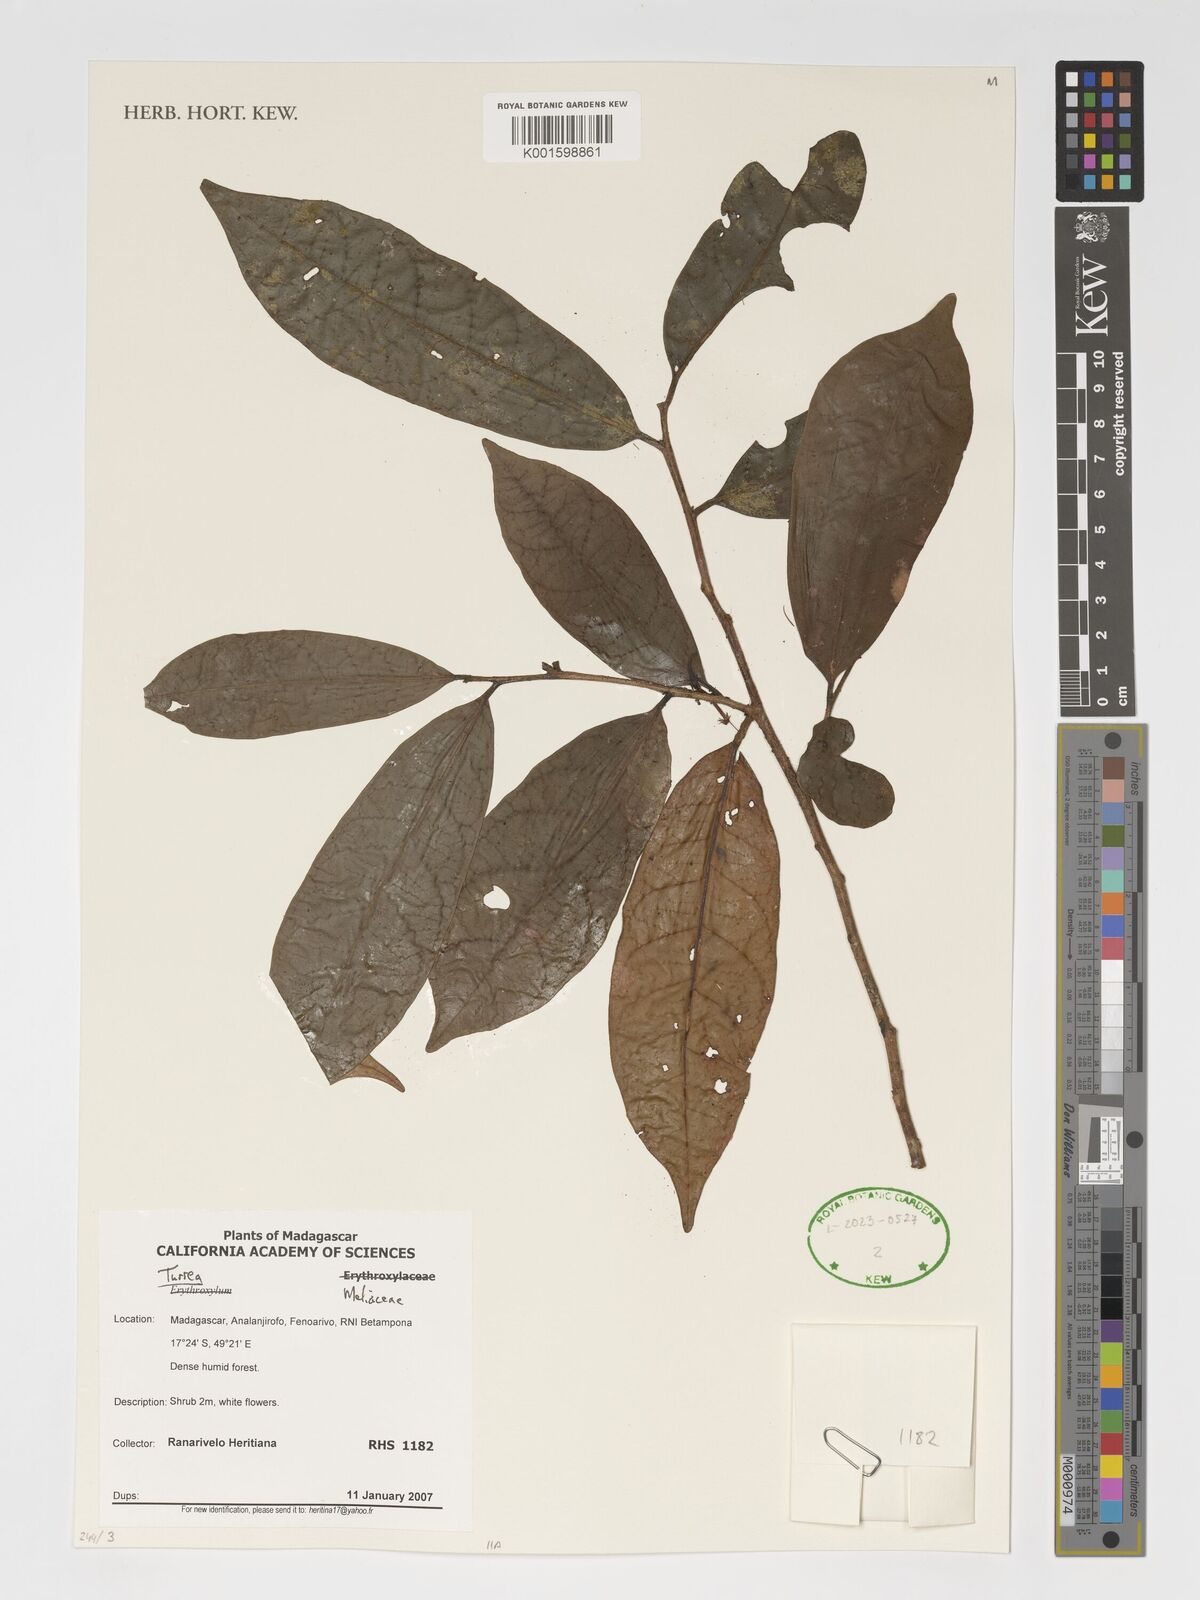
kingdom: Plantae
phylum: Tracheophyta
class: Magnoliopsida
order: Sapindales
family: Meliaceae
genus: Turraea
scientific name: Turraea
